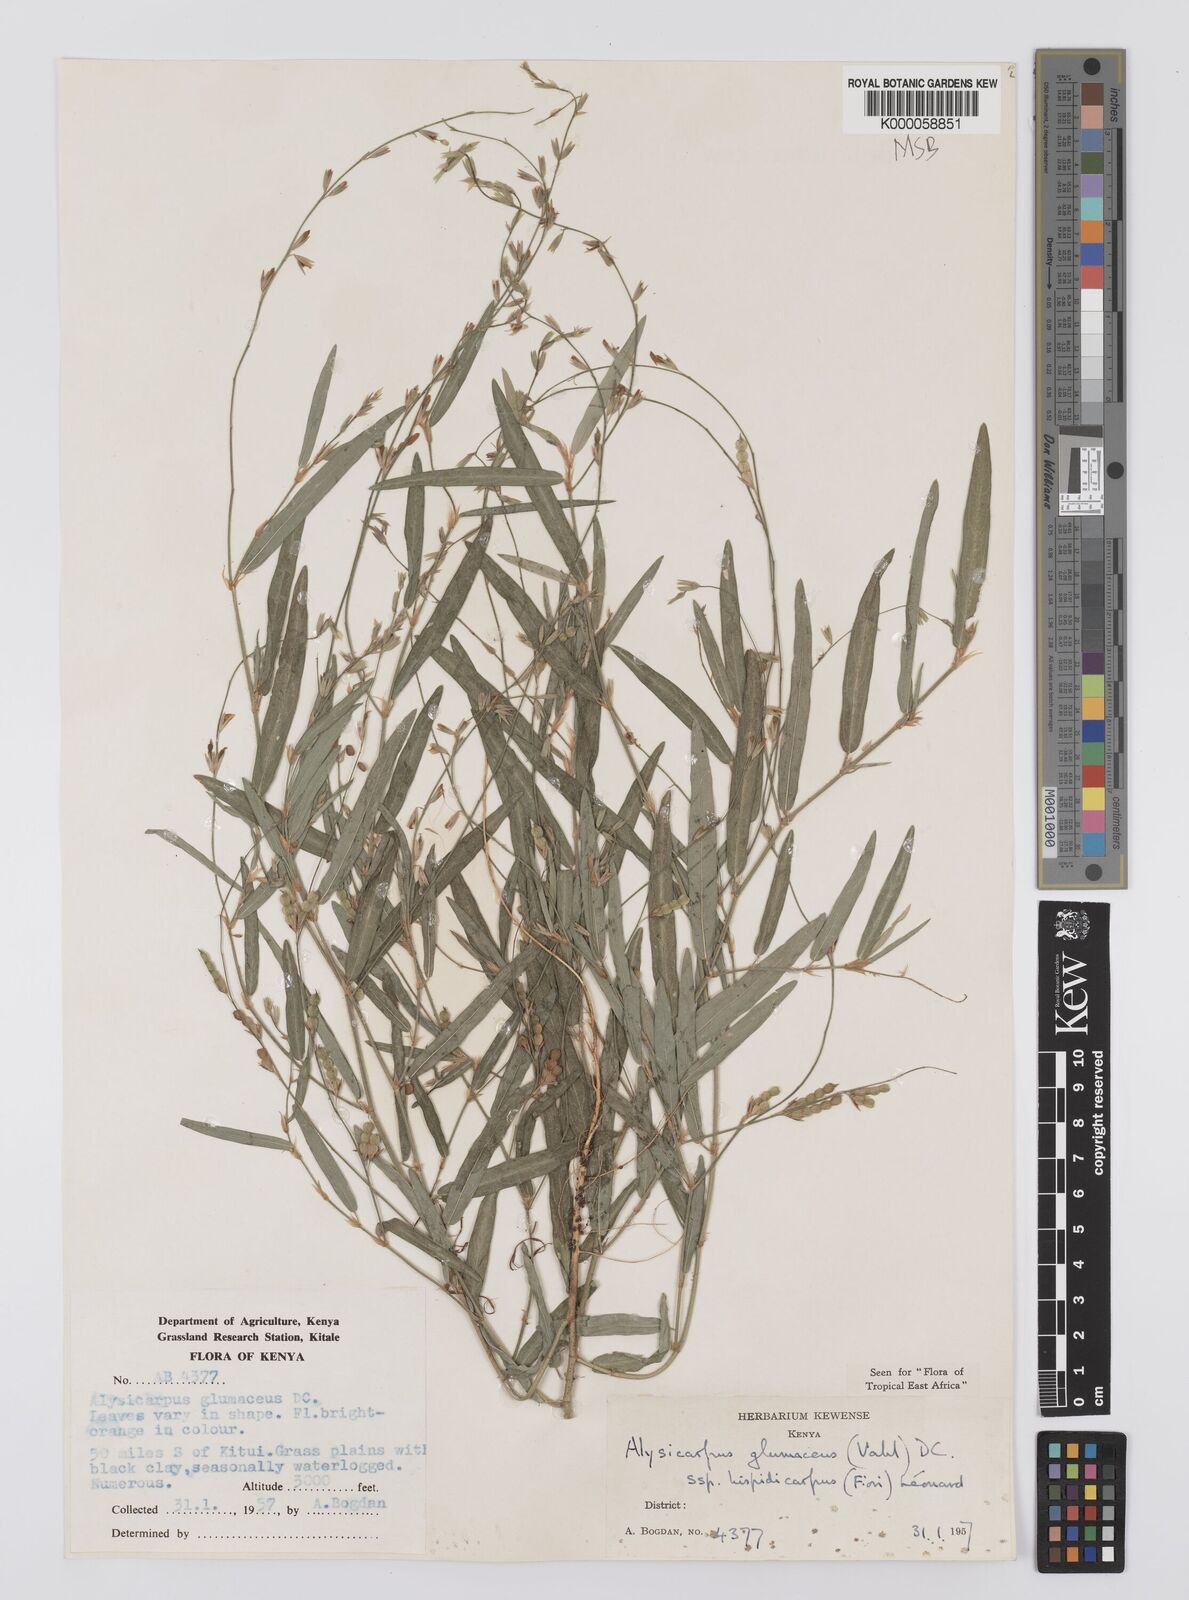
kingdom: Plantae
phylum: Tracheophyta
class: Magnoliopsida
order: Fabales
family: Fabaceae
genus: Alysicarpus
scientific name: Alysicarpus glumaceus
